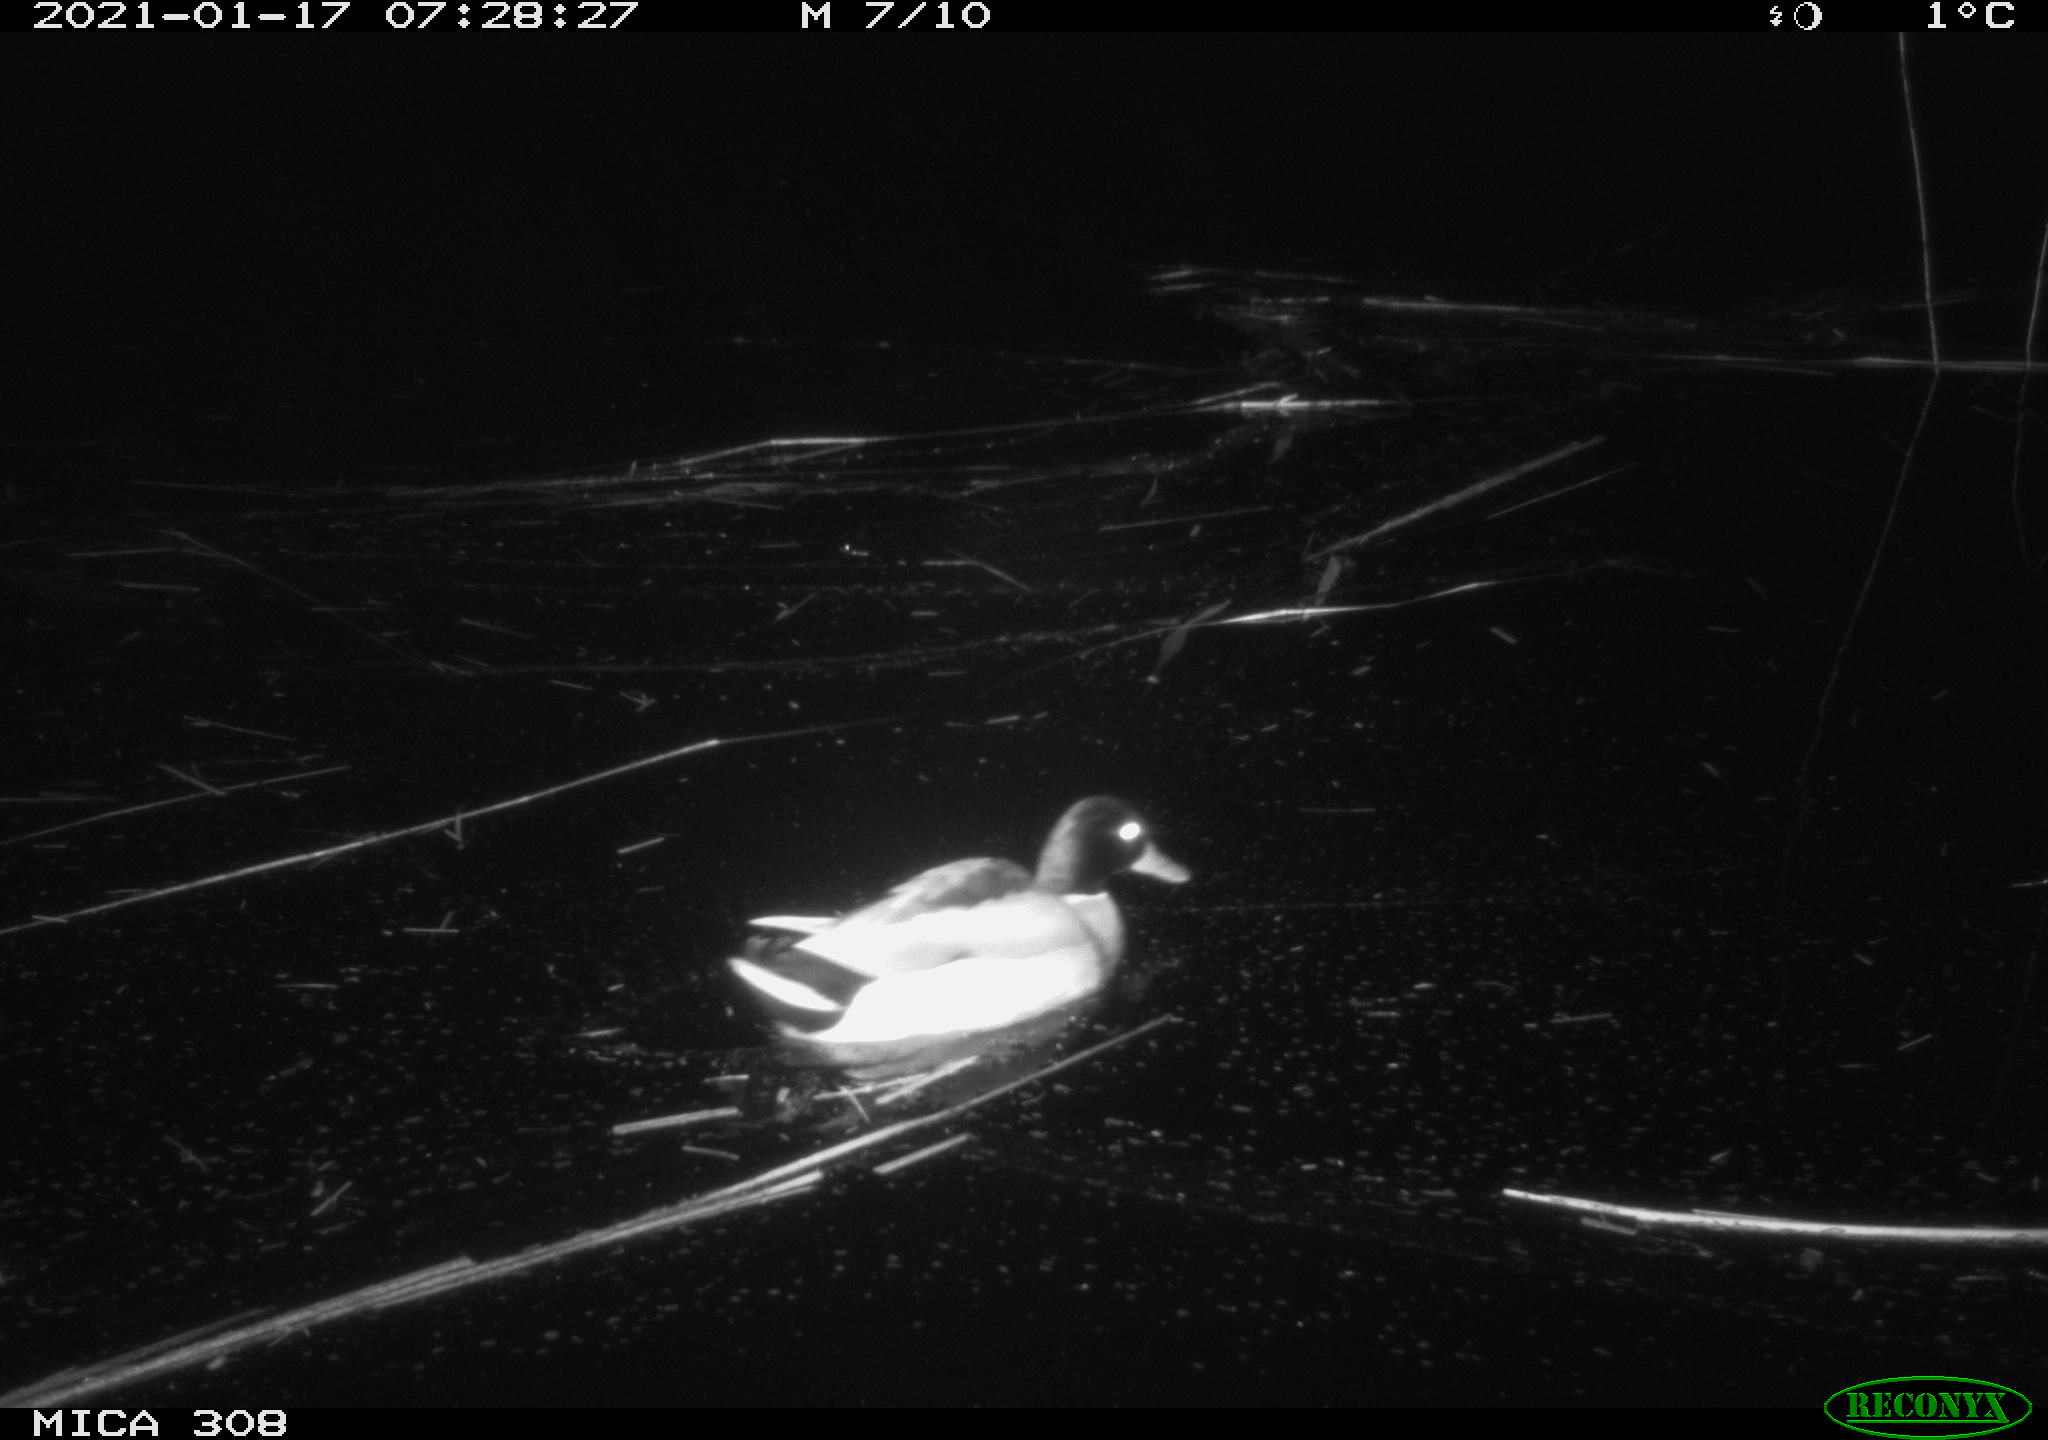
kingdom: Animalia
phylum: Chordata
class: Aves
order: Gruiformes
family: Rallidae
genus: Gallinula
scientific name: Gallinula chloropus
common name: Common moorhen
